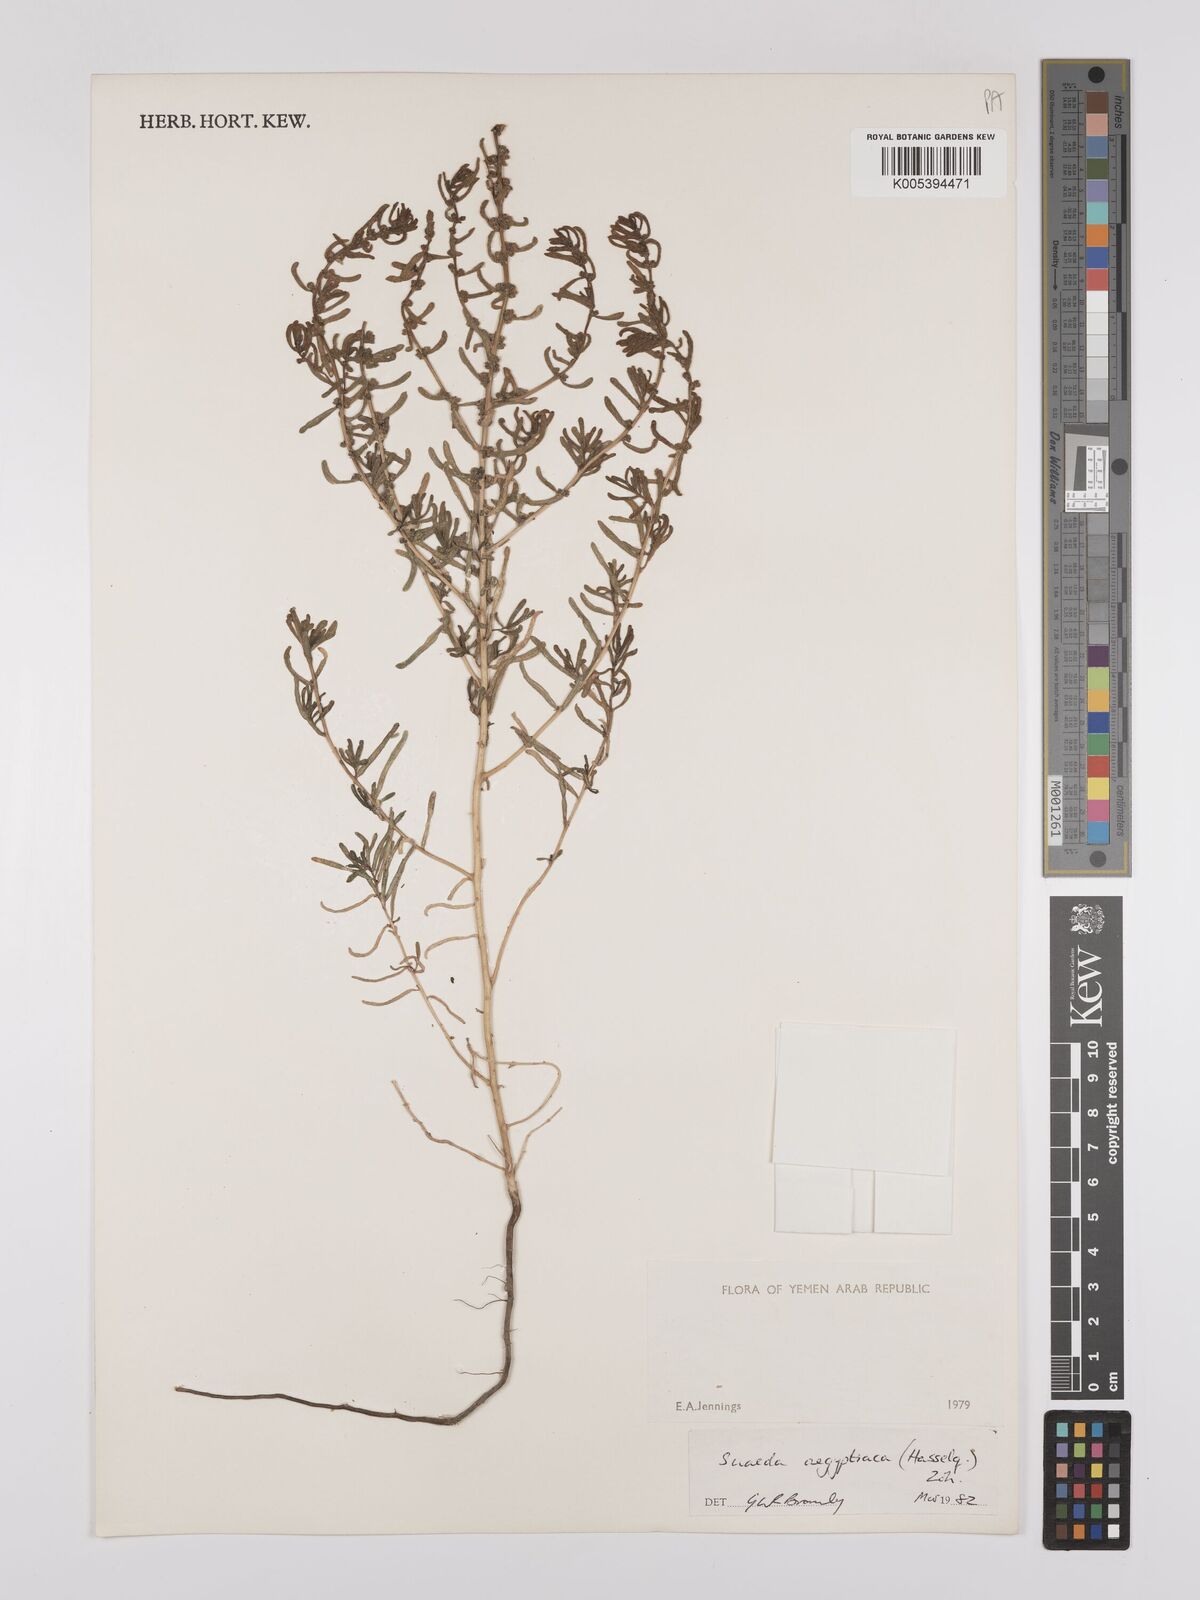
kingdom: Plantae
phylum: Tracheophyta
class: Magnoliopsida
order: Caryophyllales
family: Amaranthaceae
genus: Suaeda
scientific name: Suaeda aegyptiaca
